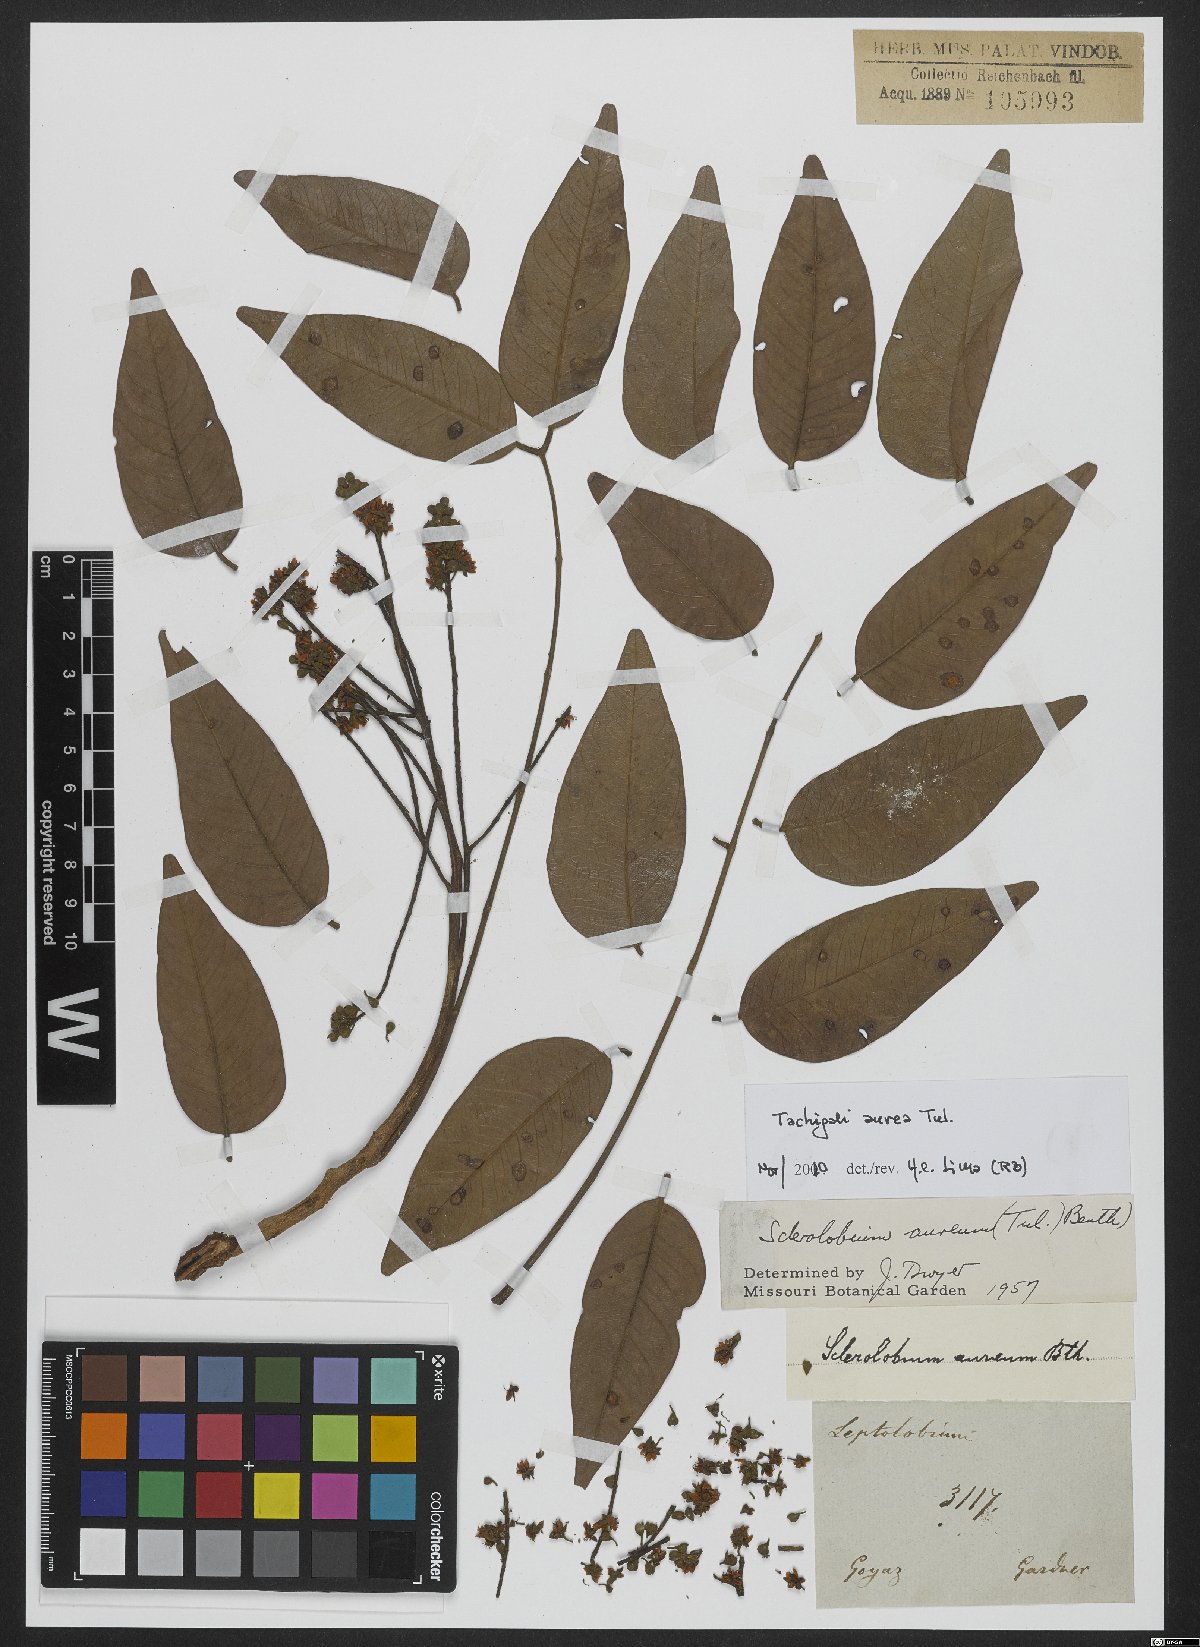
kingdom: Plantae
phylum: Tracheophyta
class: Magnoliopsida
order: Fabales
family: Fabaceae
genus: Tachigali
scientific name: Tachigali aurea
